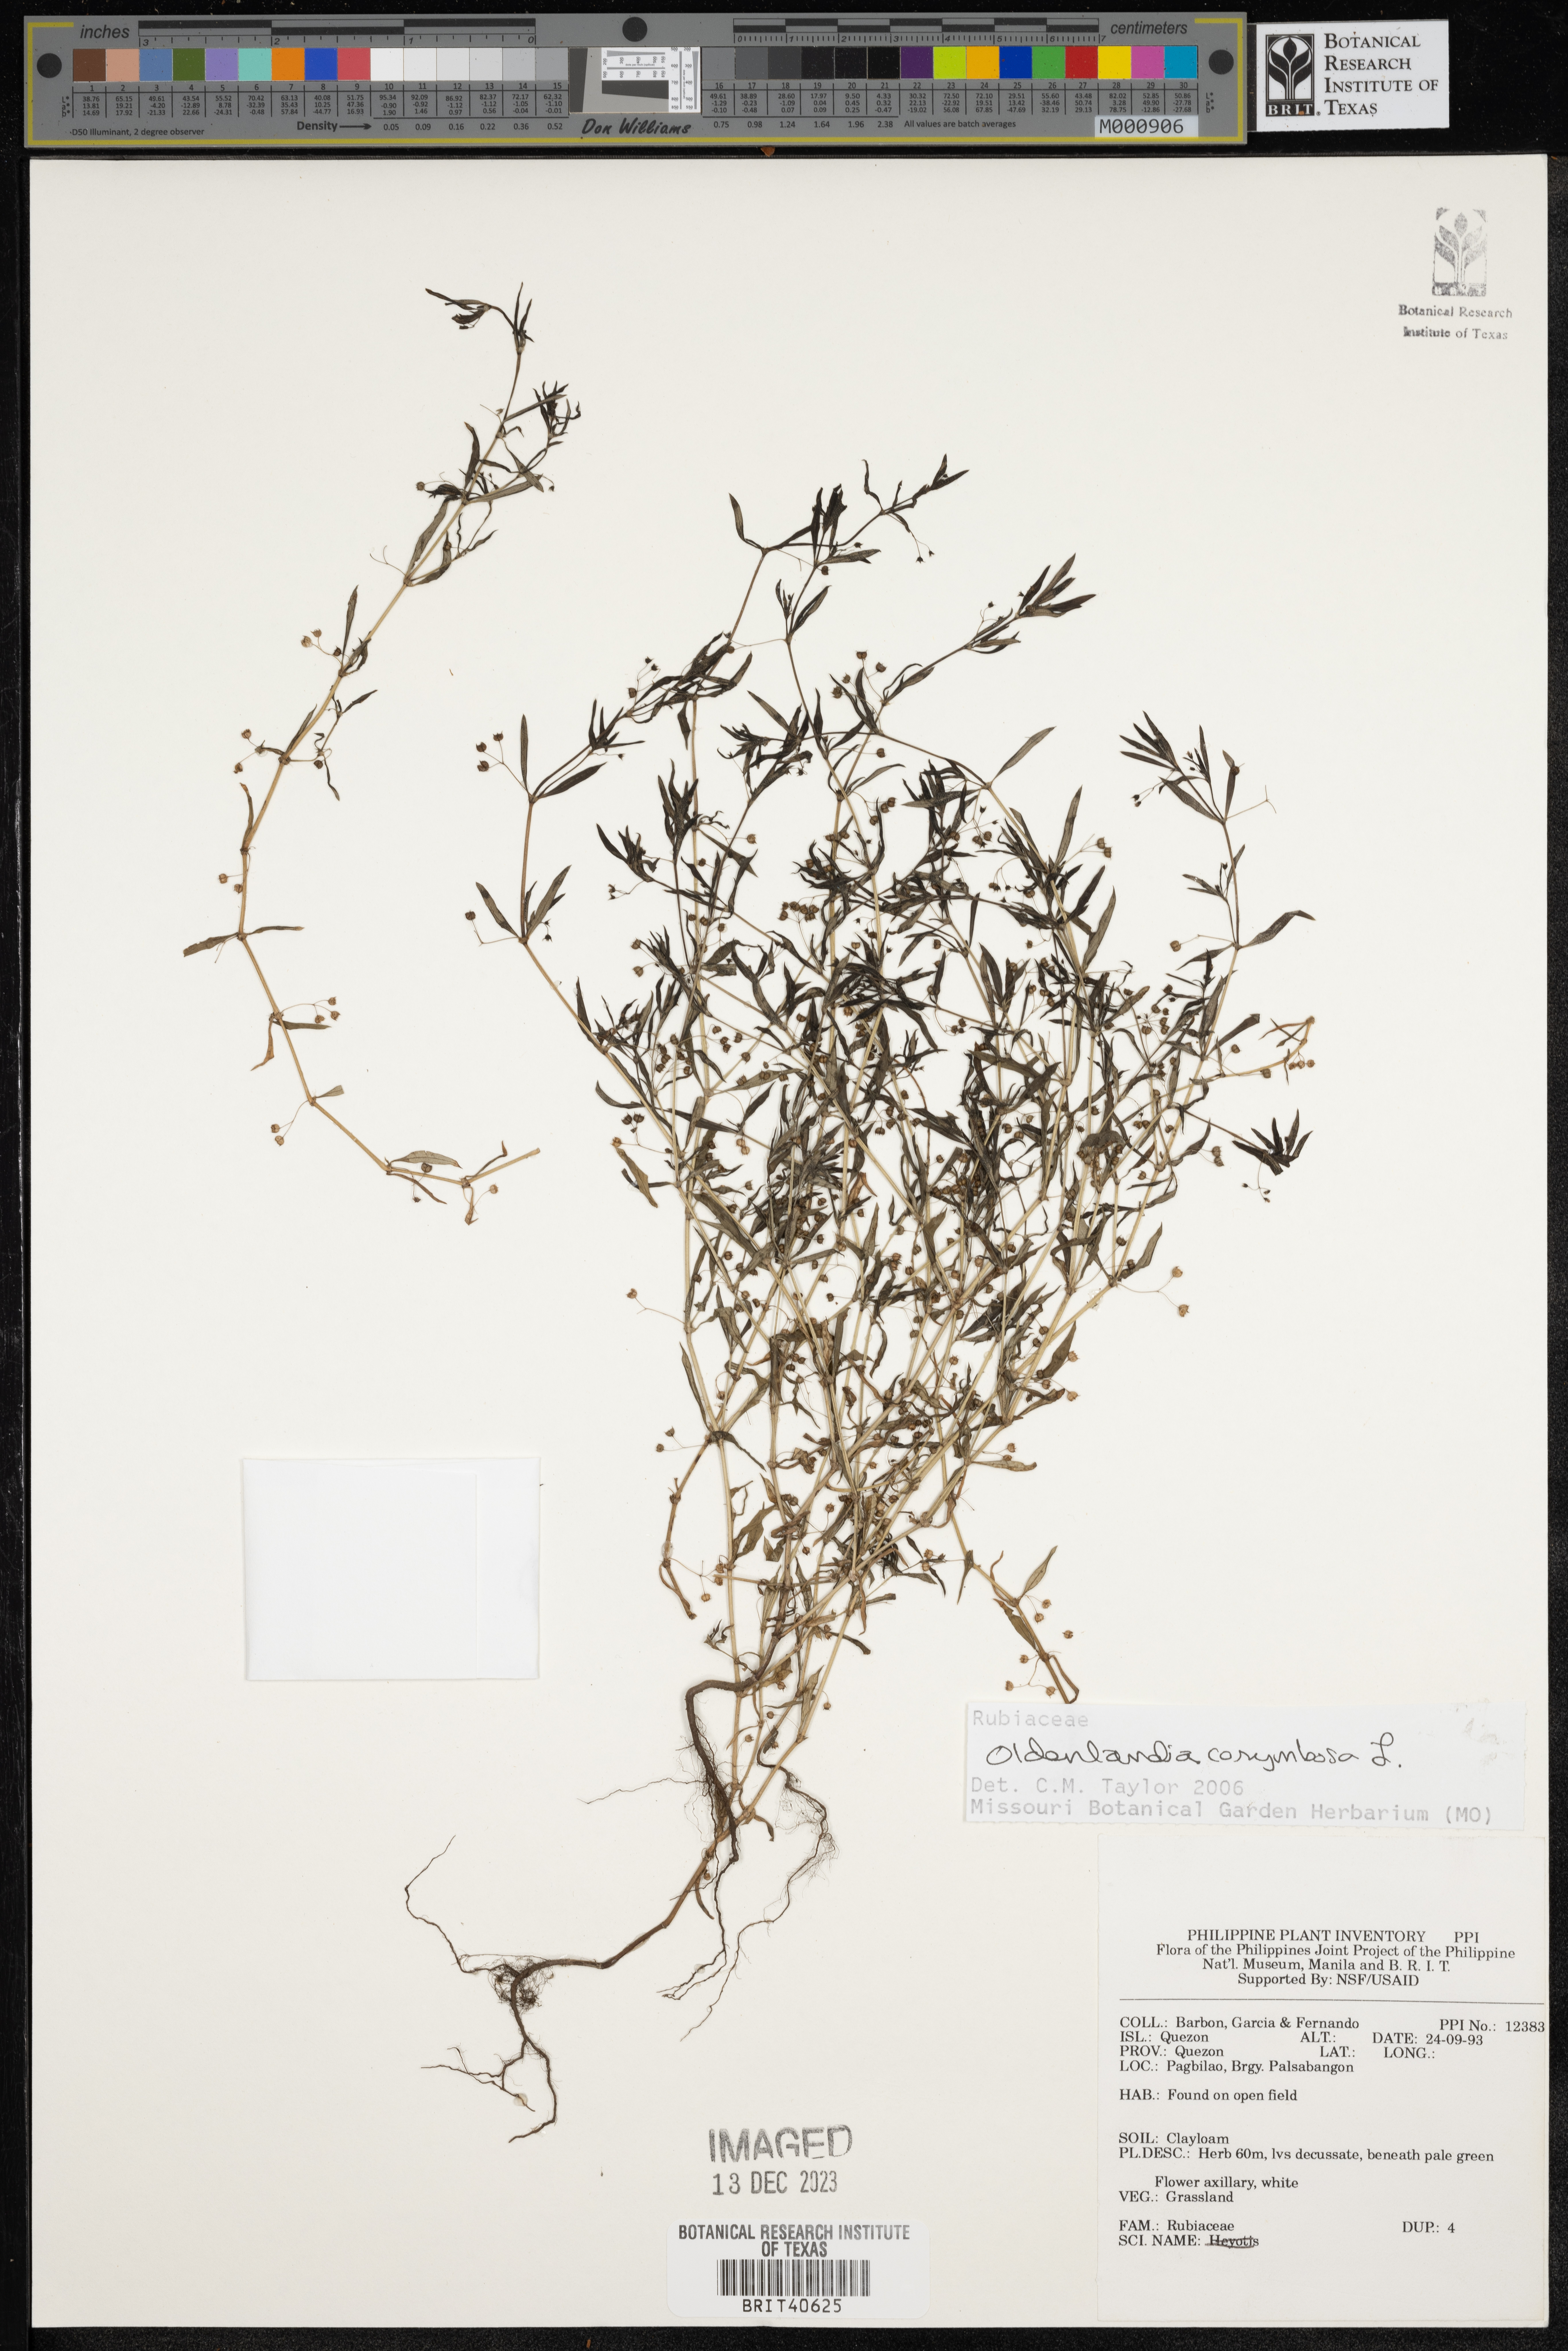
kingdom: Plantae
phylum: Tracheophyta
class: Magnoliopsida
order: Gentianales
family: Rubiaceae
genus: Oldenlandia
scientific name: Oldenlandia corymbosa
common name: Flat-top mille graines
